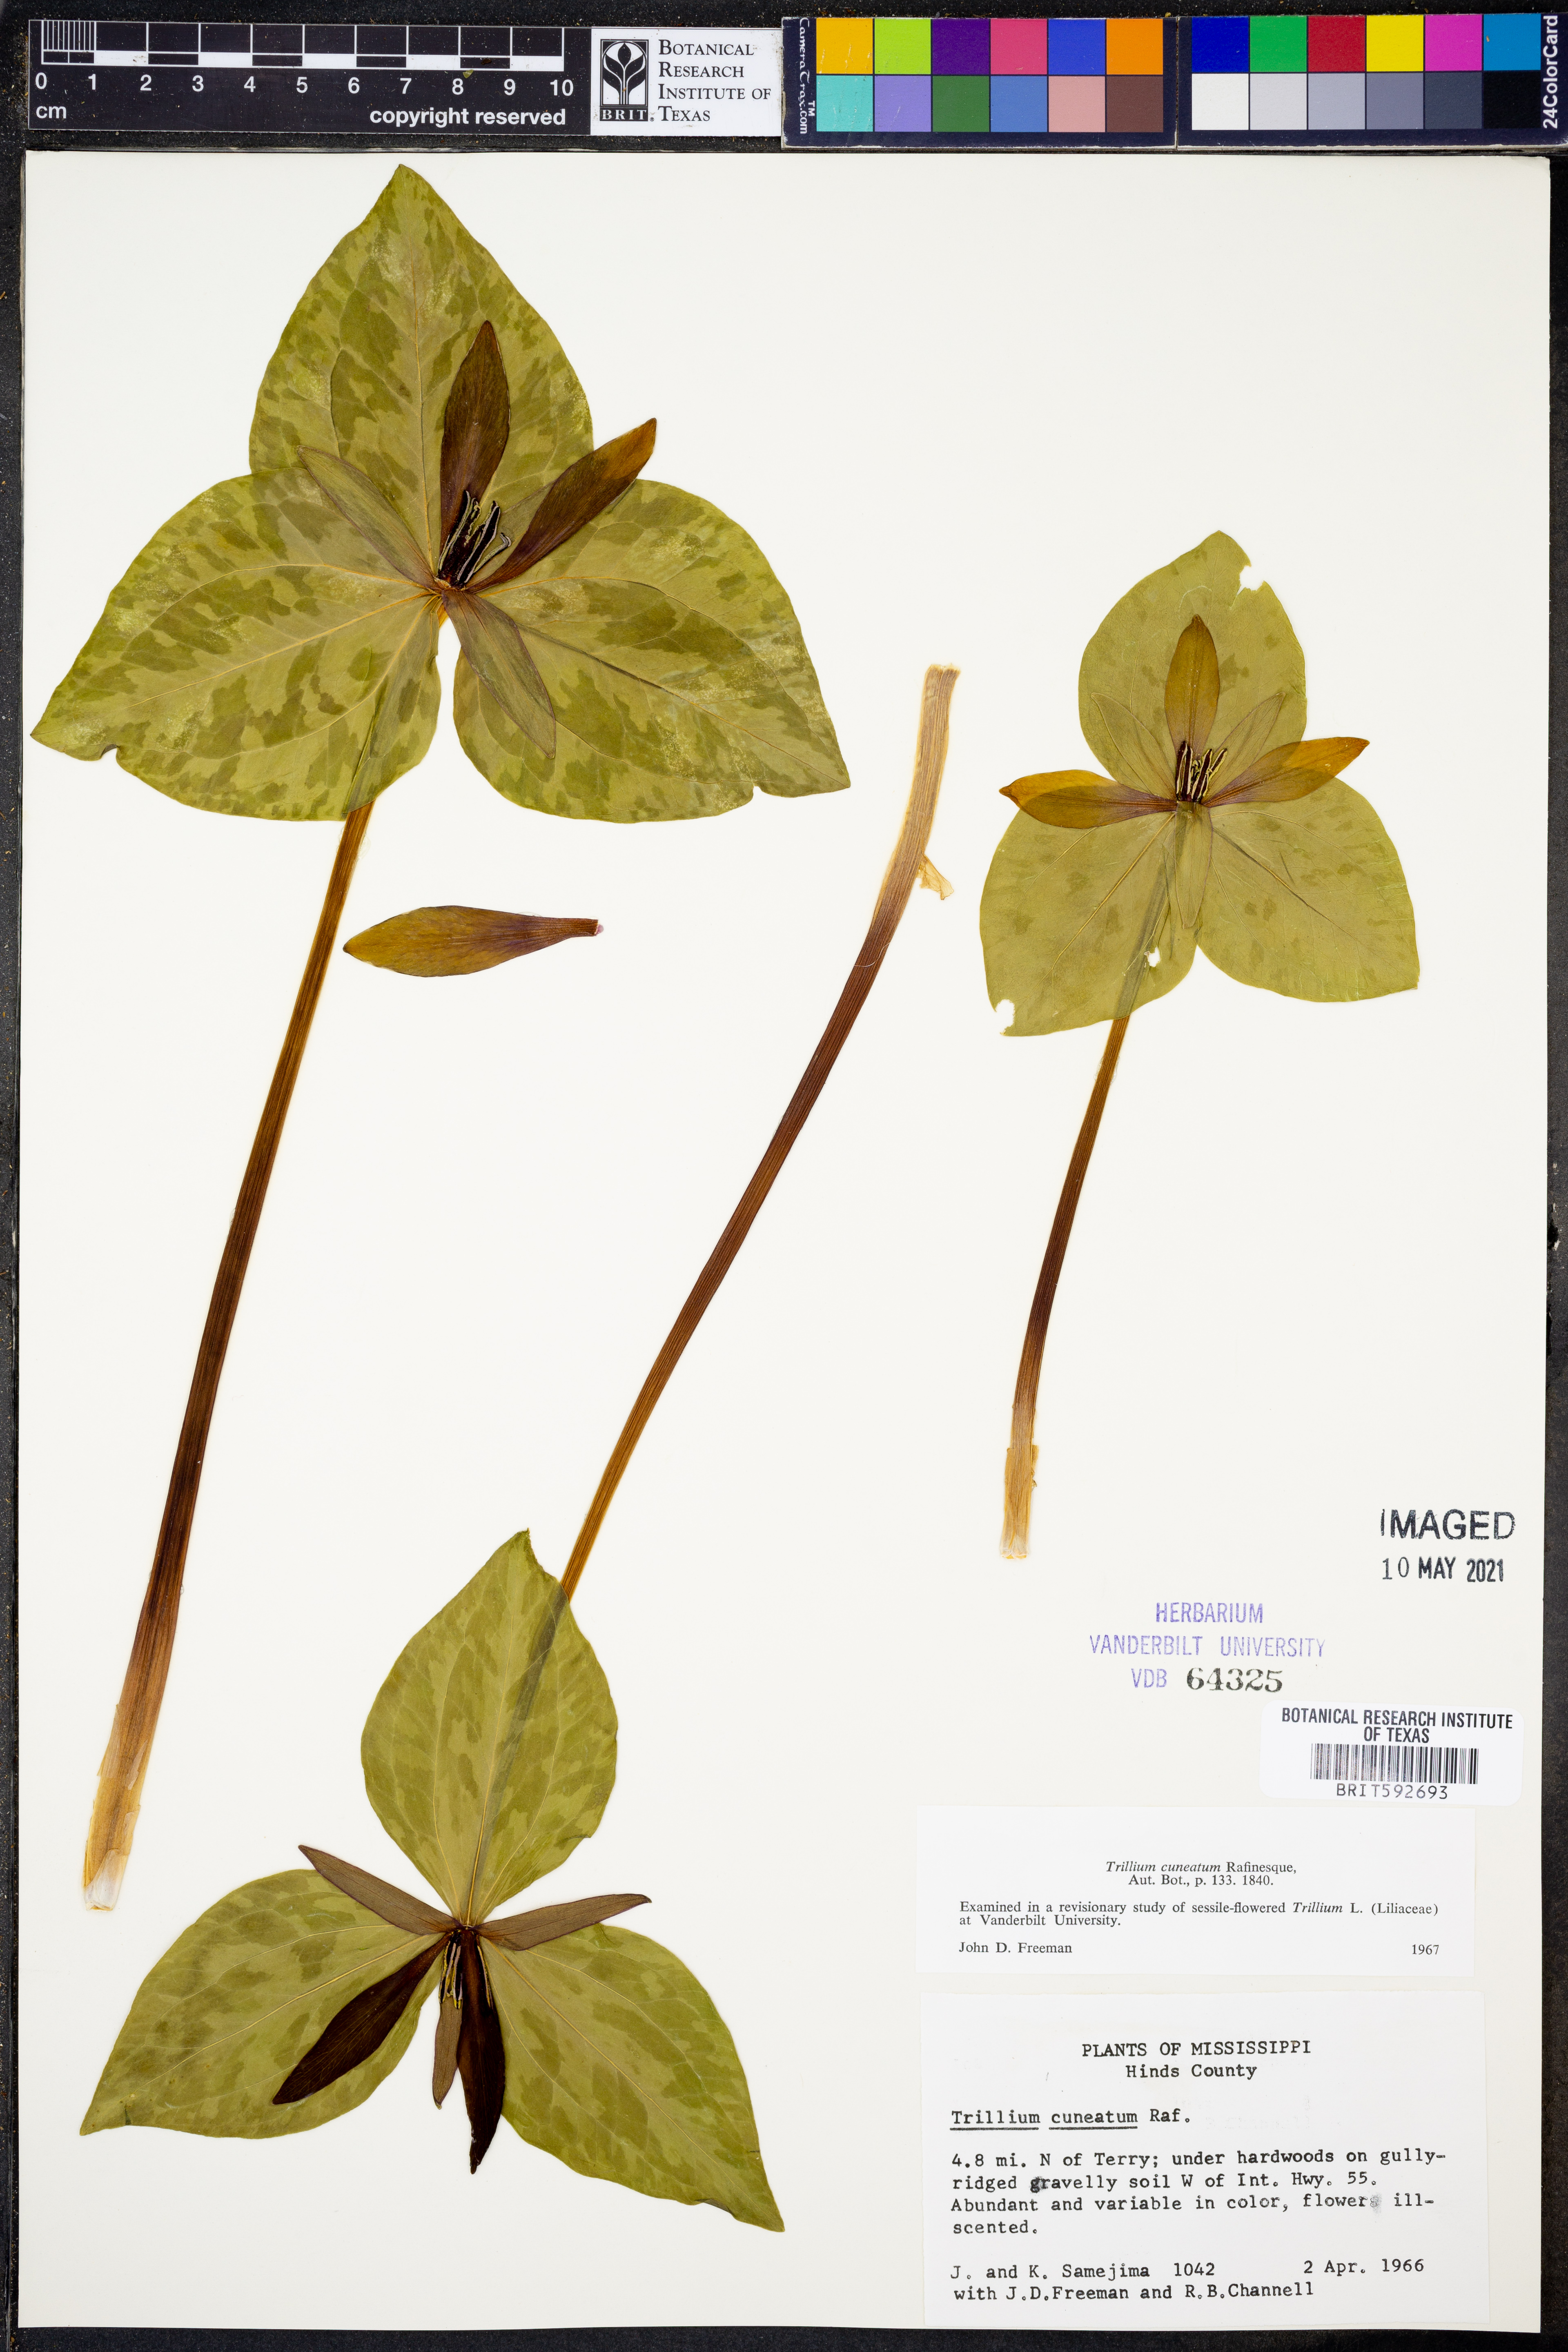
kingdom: Plantae
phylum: Tracheophyta
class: Liliopsida
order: Liliales
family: Melanthiaceae
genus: Trillium
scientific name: Trillium cuneatum
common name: Cuneate trillium
